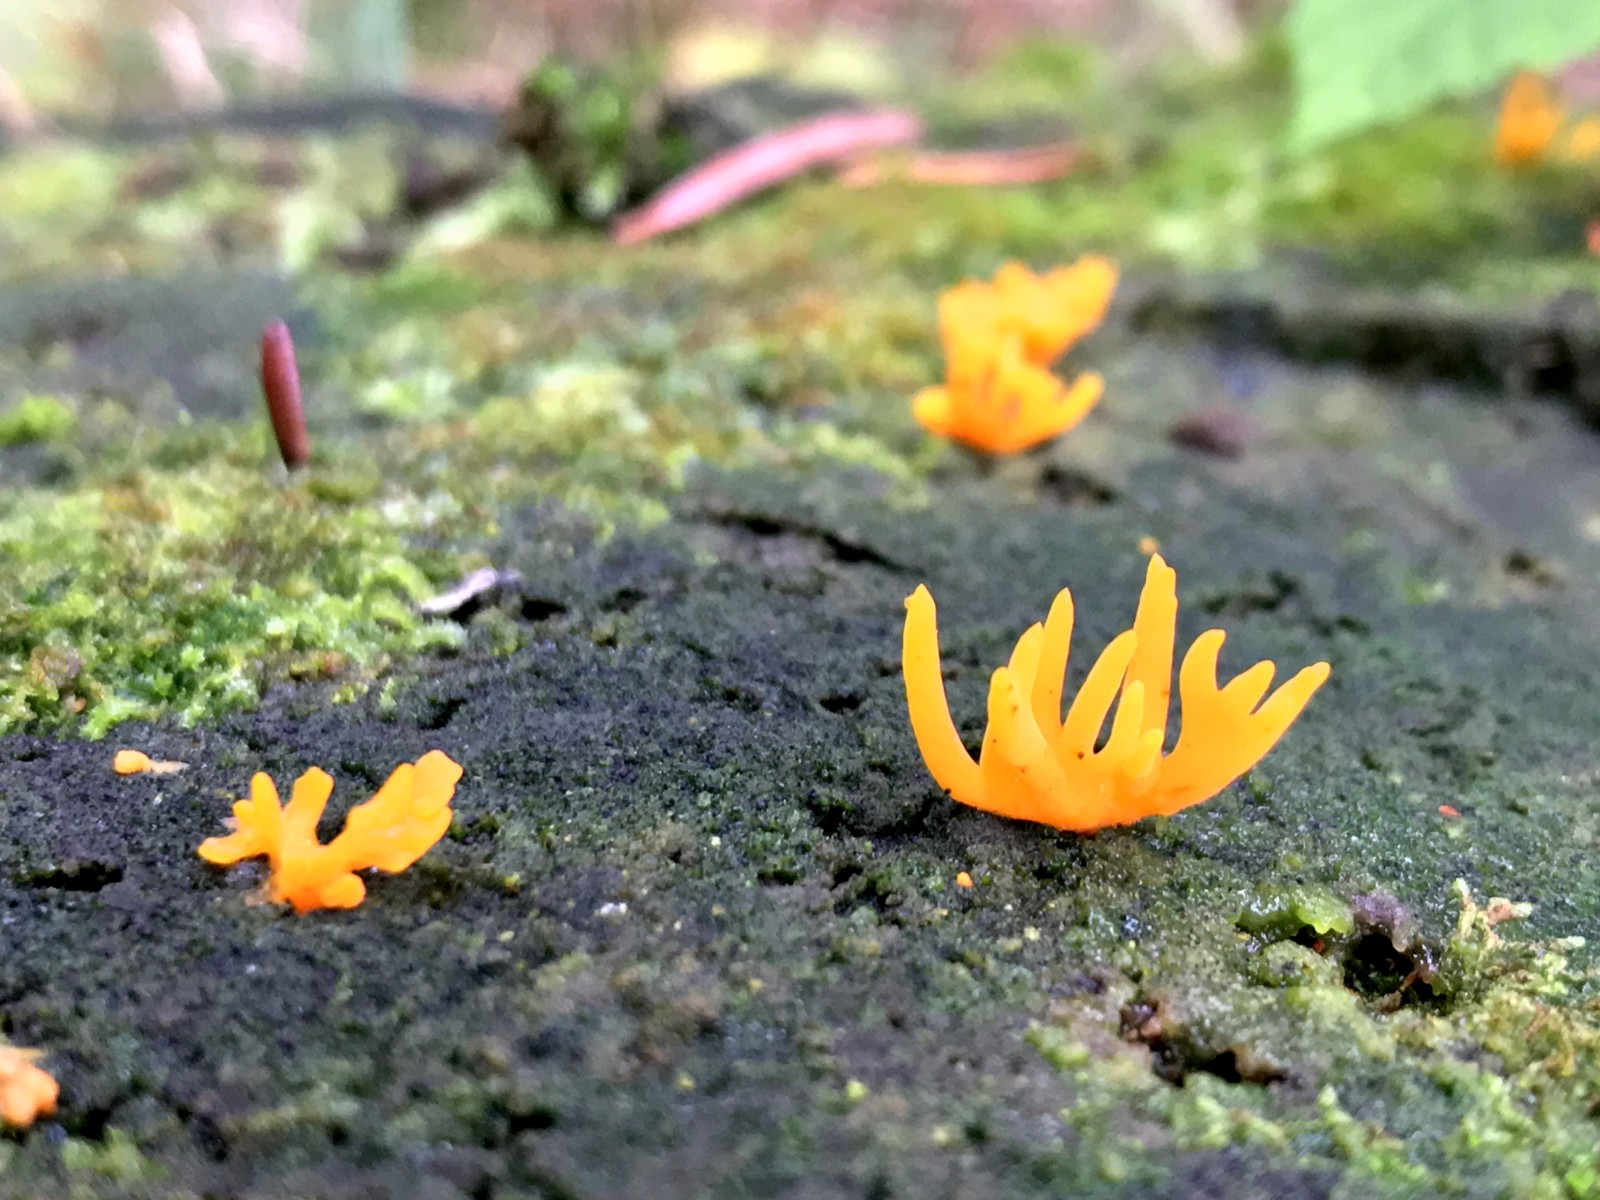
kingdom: Fungi
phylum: Basidiomycota
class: Dacrymycetes
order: Dacrymycetales
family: Dacrymycetaceae
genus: Calocera
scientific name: Calocera cornea
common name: liden guldgaffel
